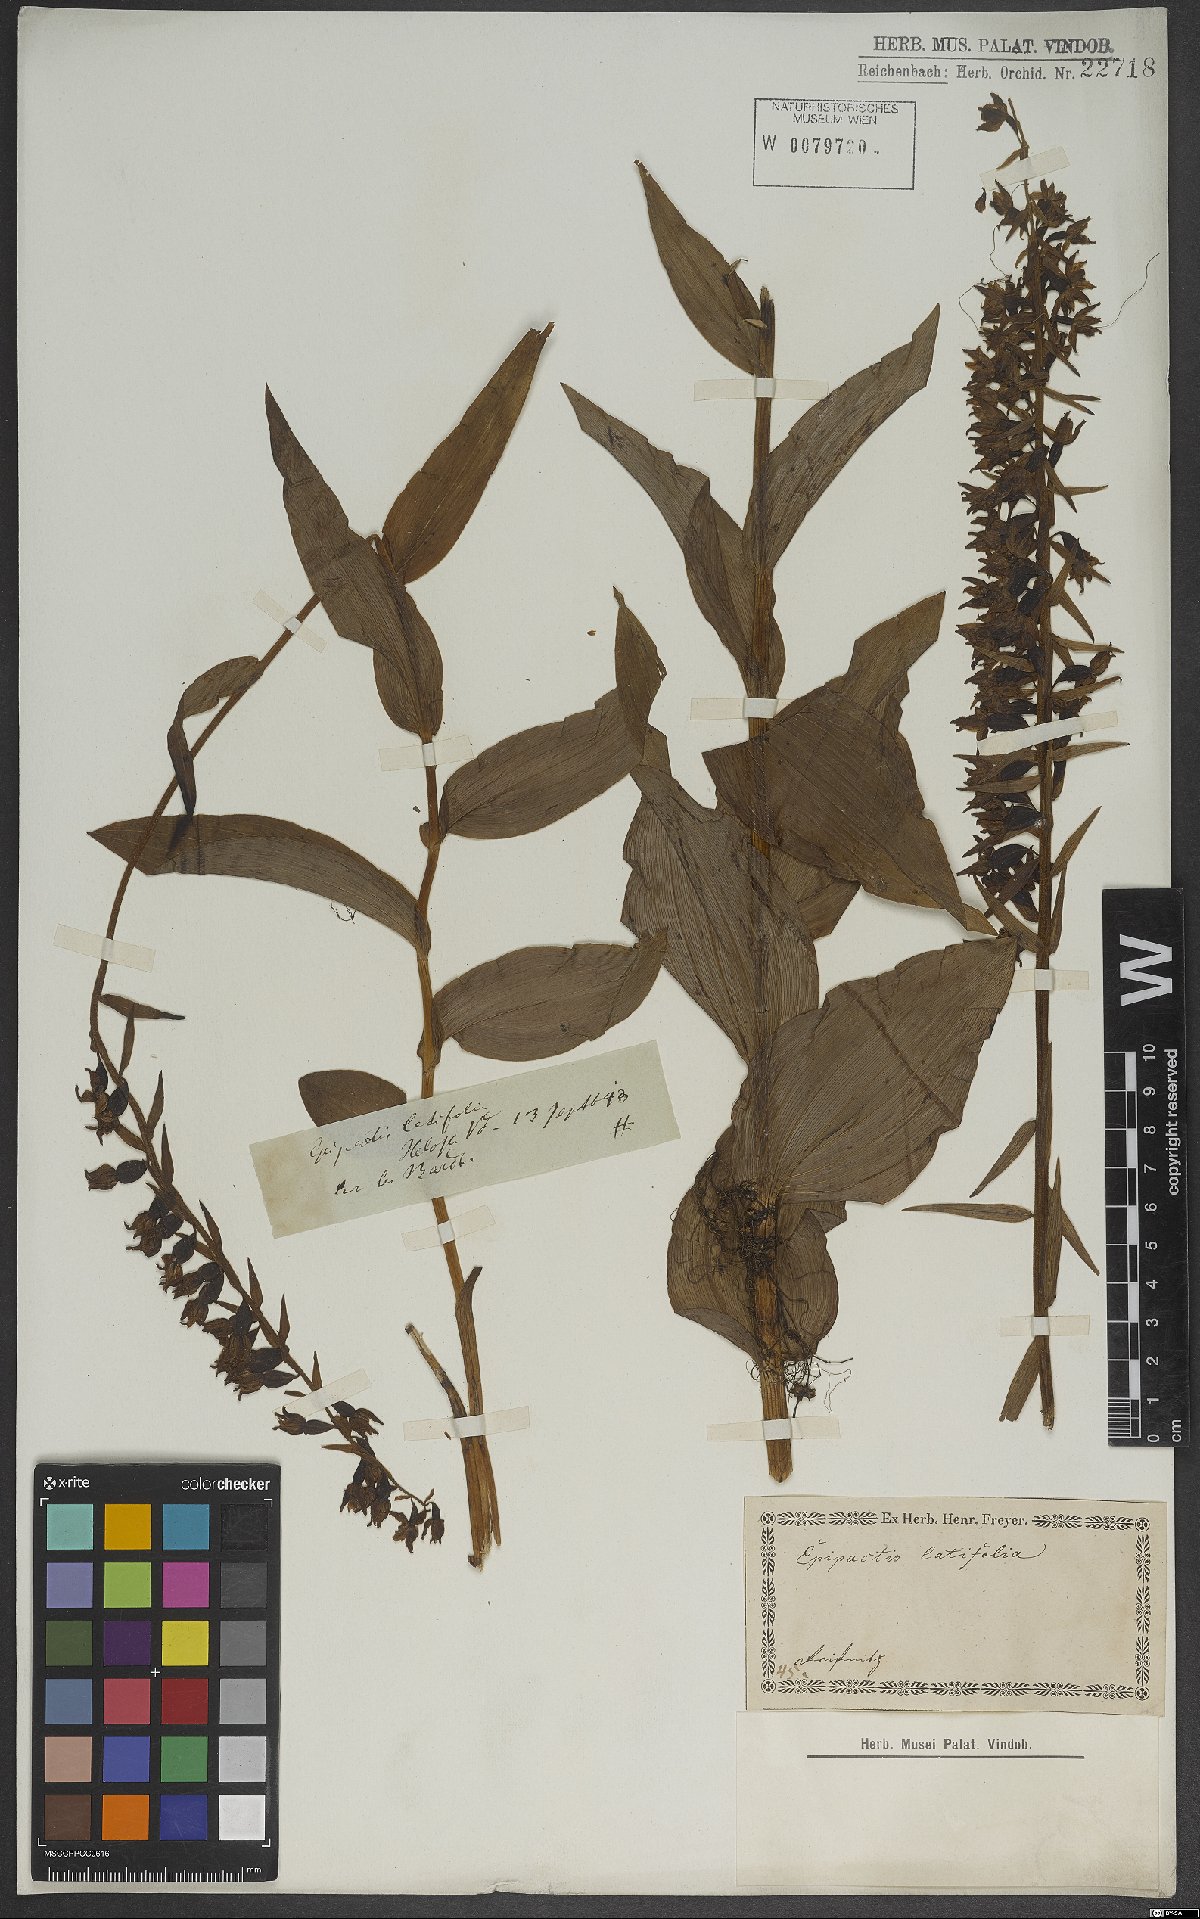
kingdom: Plantae
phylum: Tracheophyta
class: Liliopsida
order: Asparagales
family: Orchidaceae
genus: Epipactis
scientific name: Epipactis helleborine
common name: Broad-leaved helleborine
